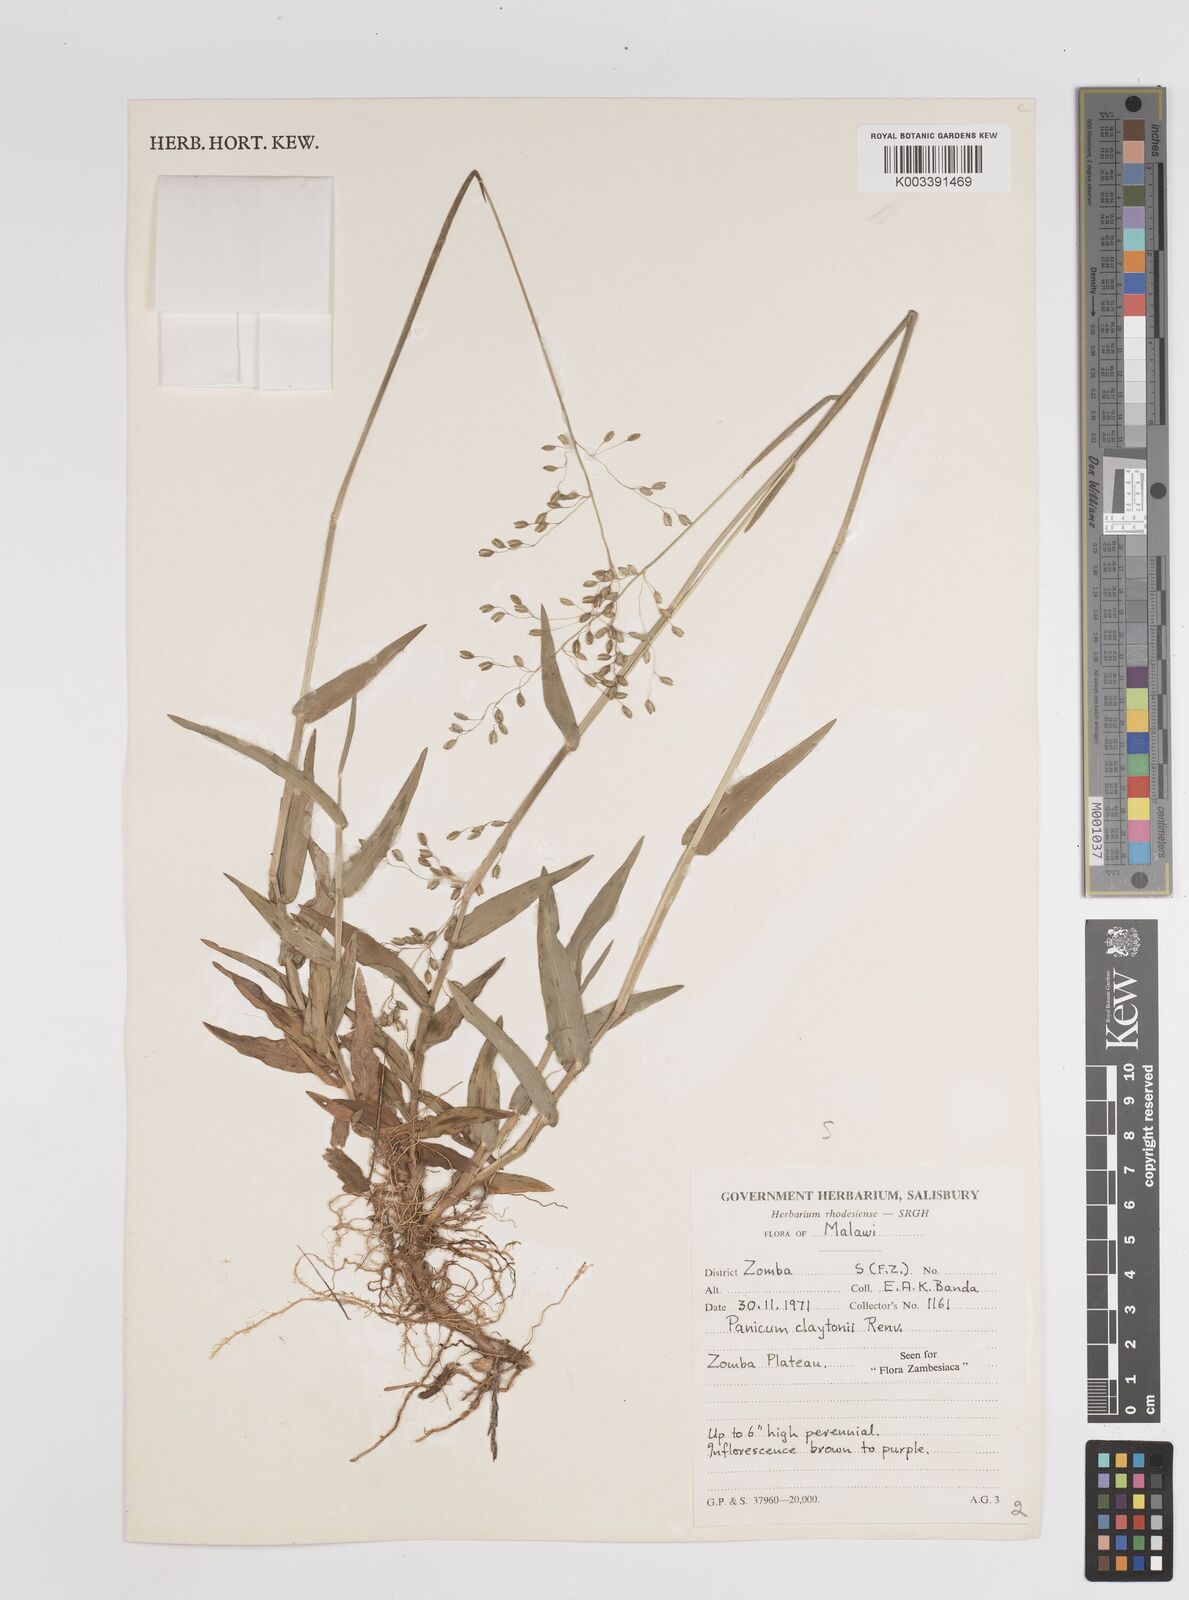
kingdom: Plantae
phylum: Tracheophyta
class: Liliopsida
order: Poales
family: Poaceae
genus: Adenochloa
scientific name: Adenochloa claytonii
